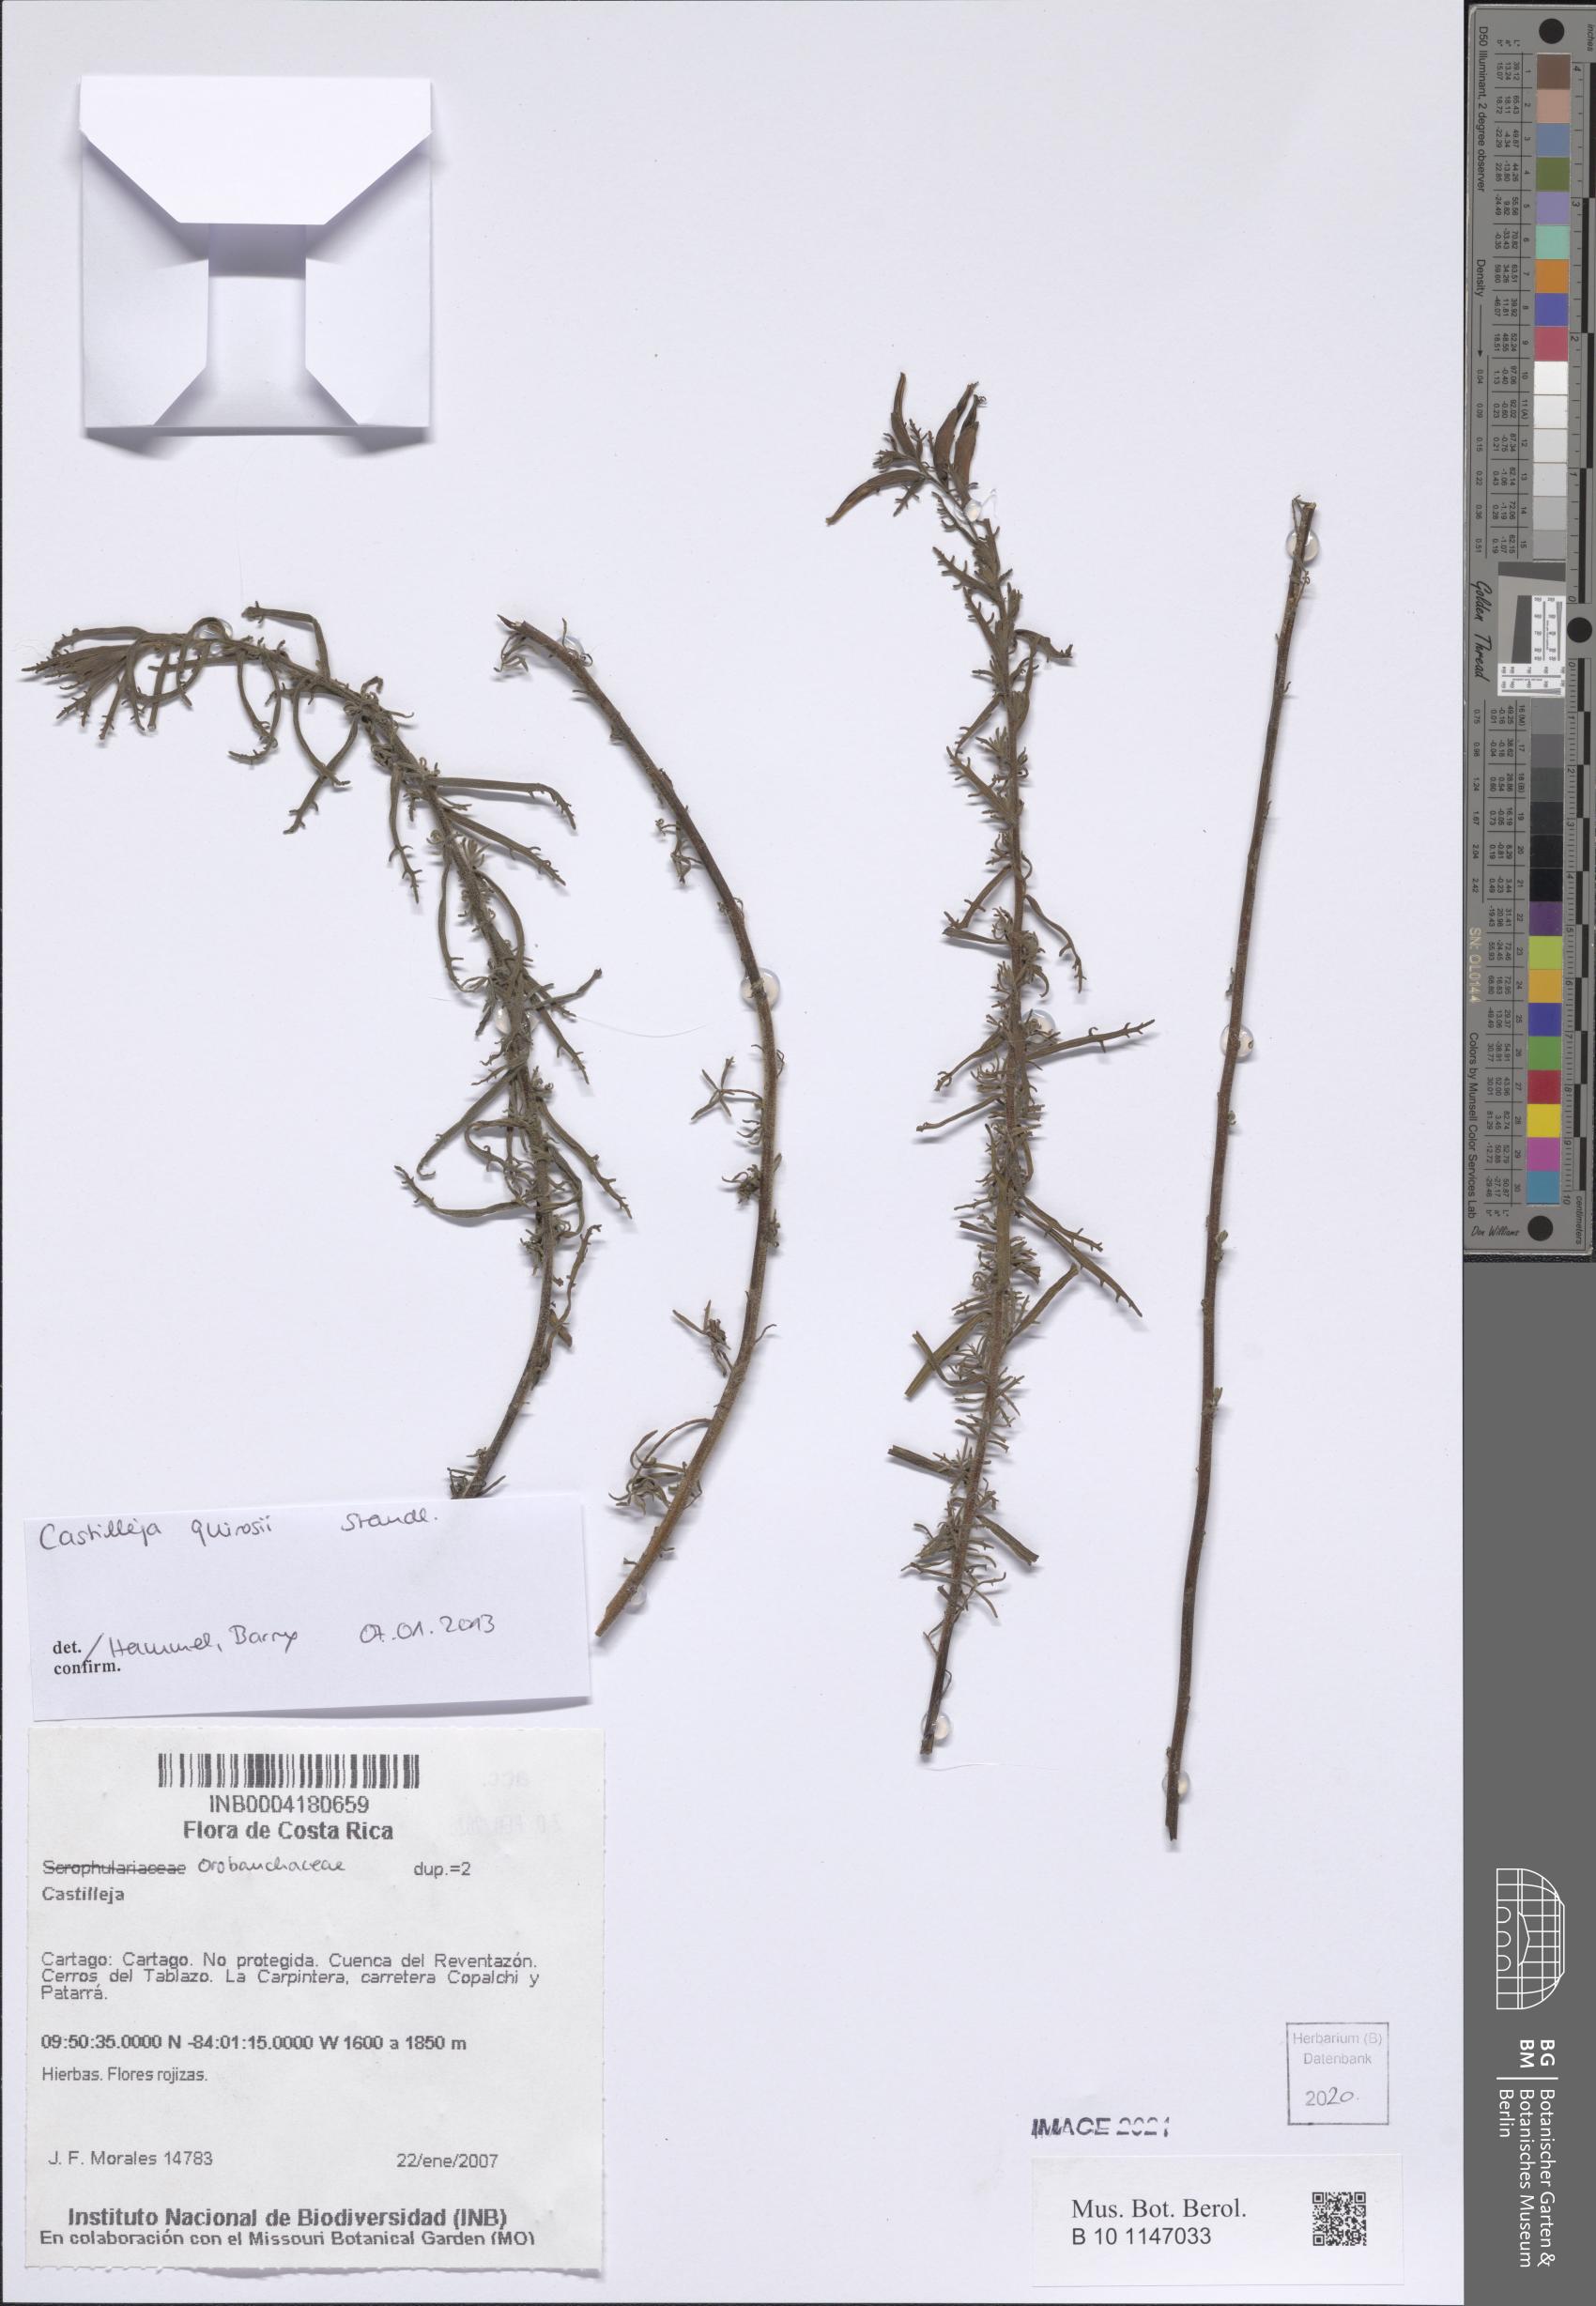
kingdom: Plantae
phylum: Tracheophyta
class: Magnoliopsida
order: Lamiales
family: Orobanchaceae
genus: Castilleja
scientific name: Castilleja quirosii
